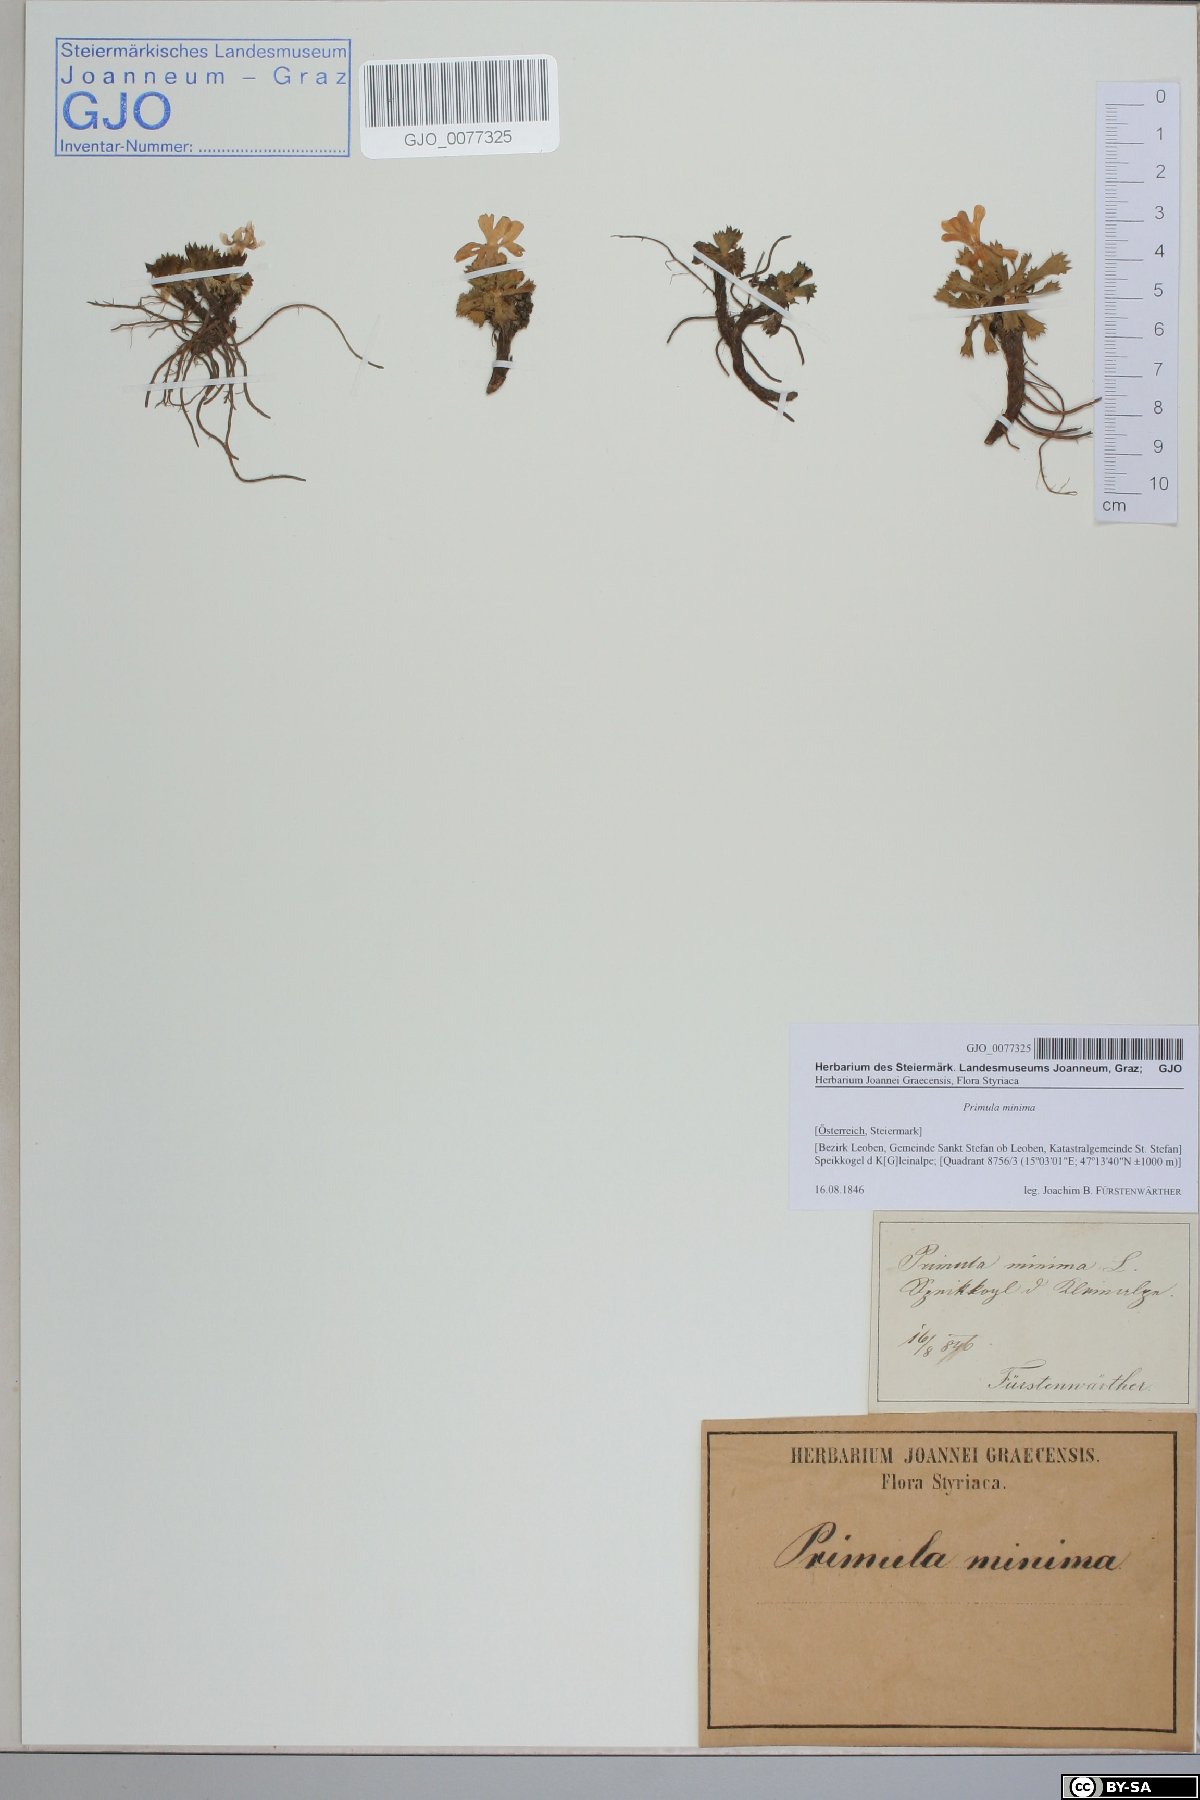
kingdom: Plantae
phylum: Tracheophyta
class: Magnoliopsida
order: Ericales
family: Primulaceae
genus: Primula
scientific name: Primula minima
